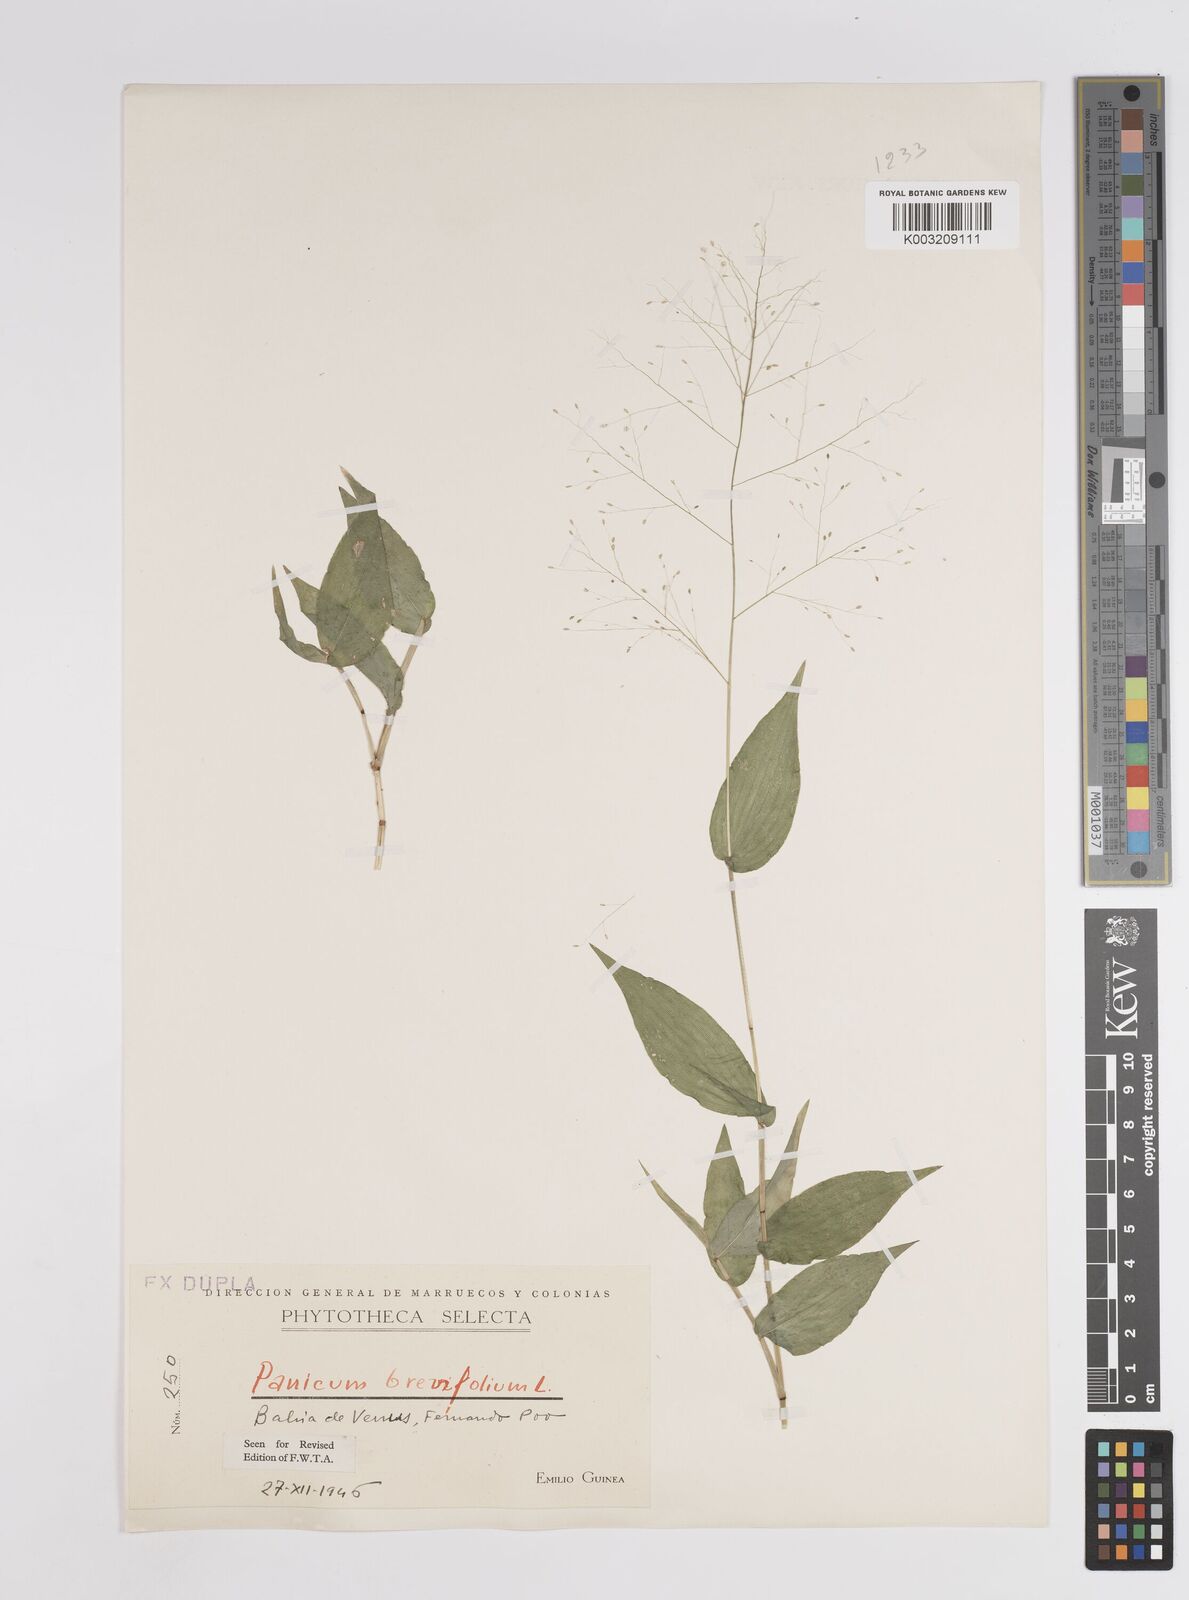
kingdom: Plantae
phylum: Tracheophyta
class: Liliopsida
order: Poales
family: Poaceae
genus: Panicum
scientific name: Panicum brevifolium
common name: Shortleaf panic grass
